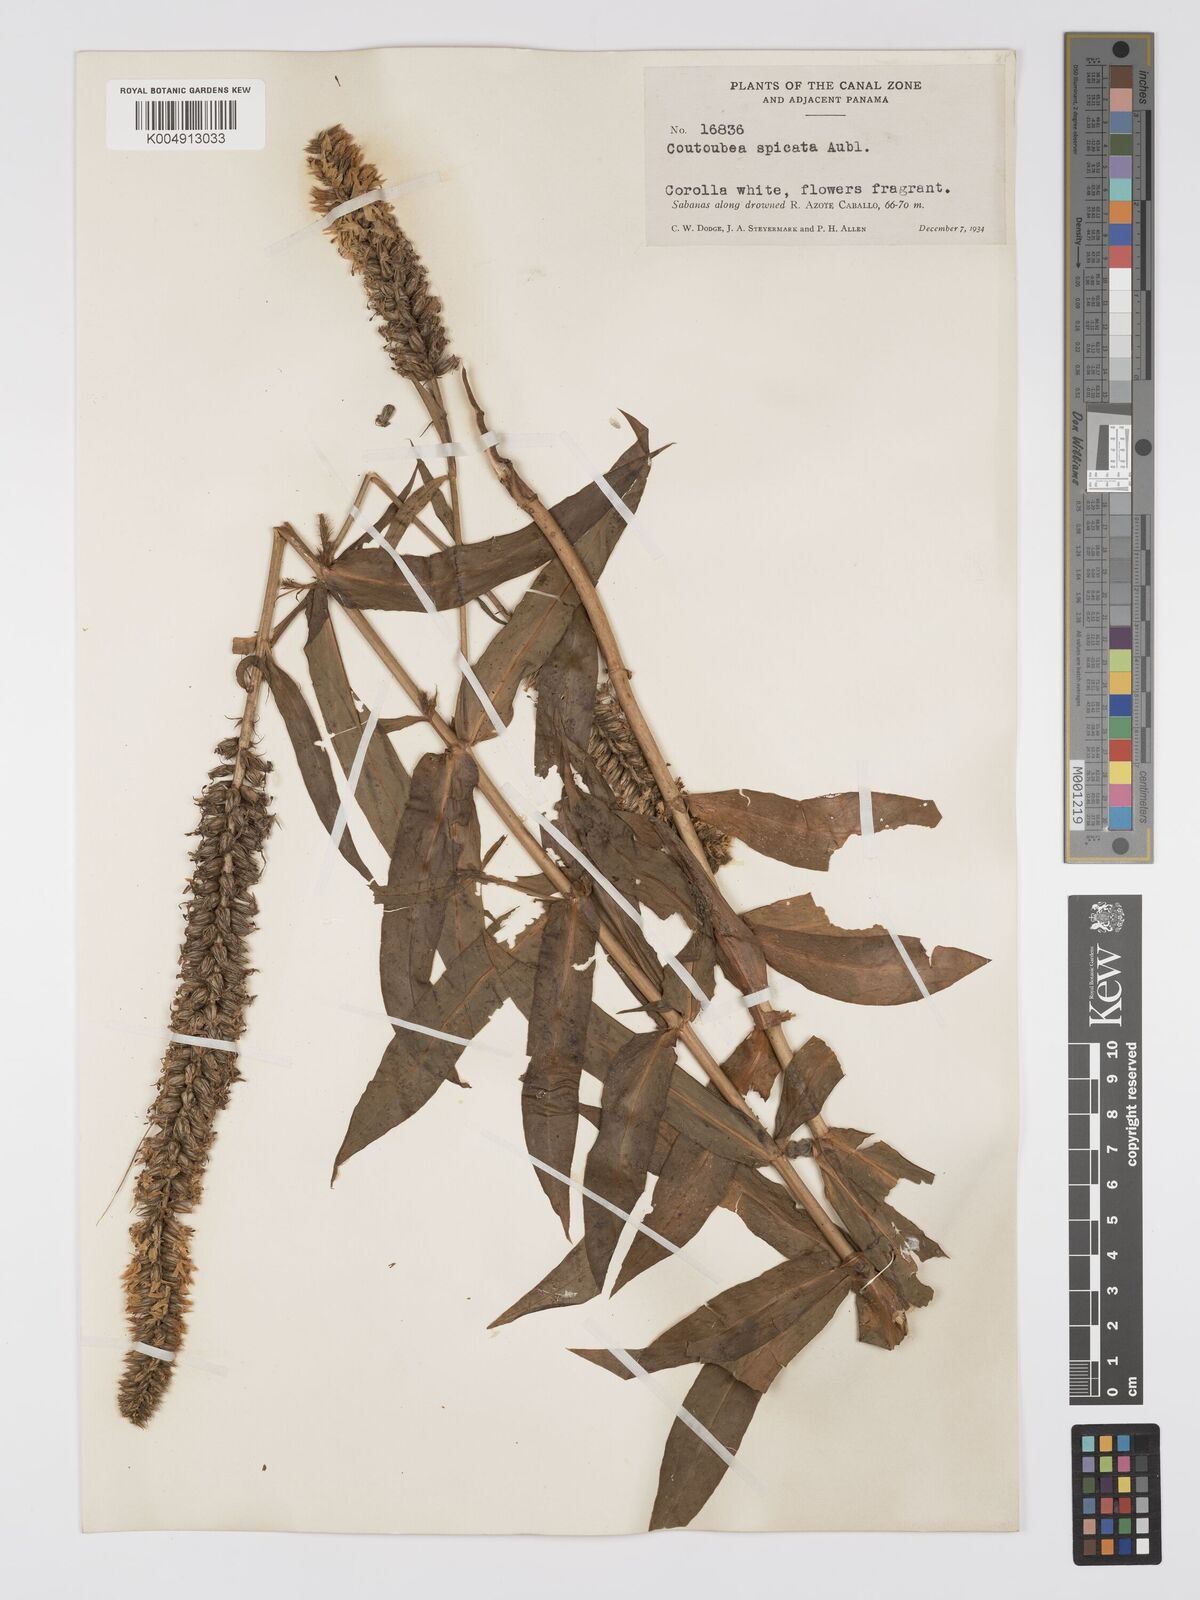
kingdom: Plantae
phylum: Tracheophyta
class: Magnoliopsida
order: Gentianales
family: Gentianaceae
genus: Coutoubea
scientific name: Coutoubea spicata
